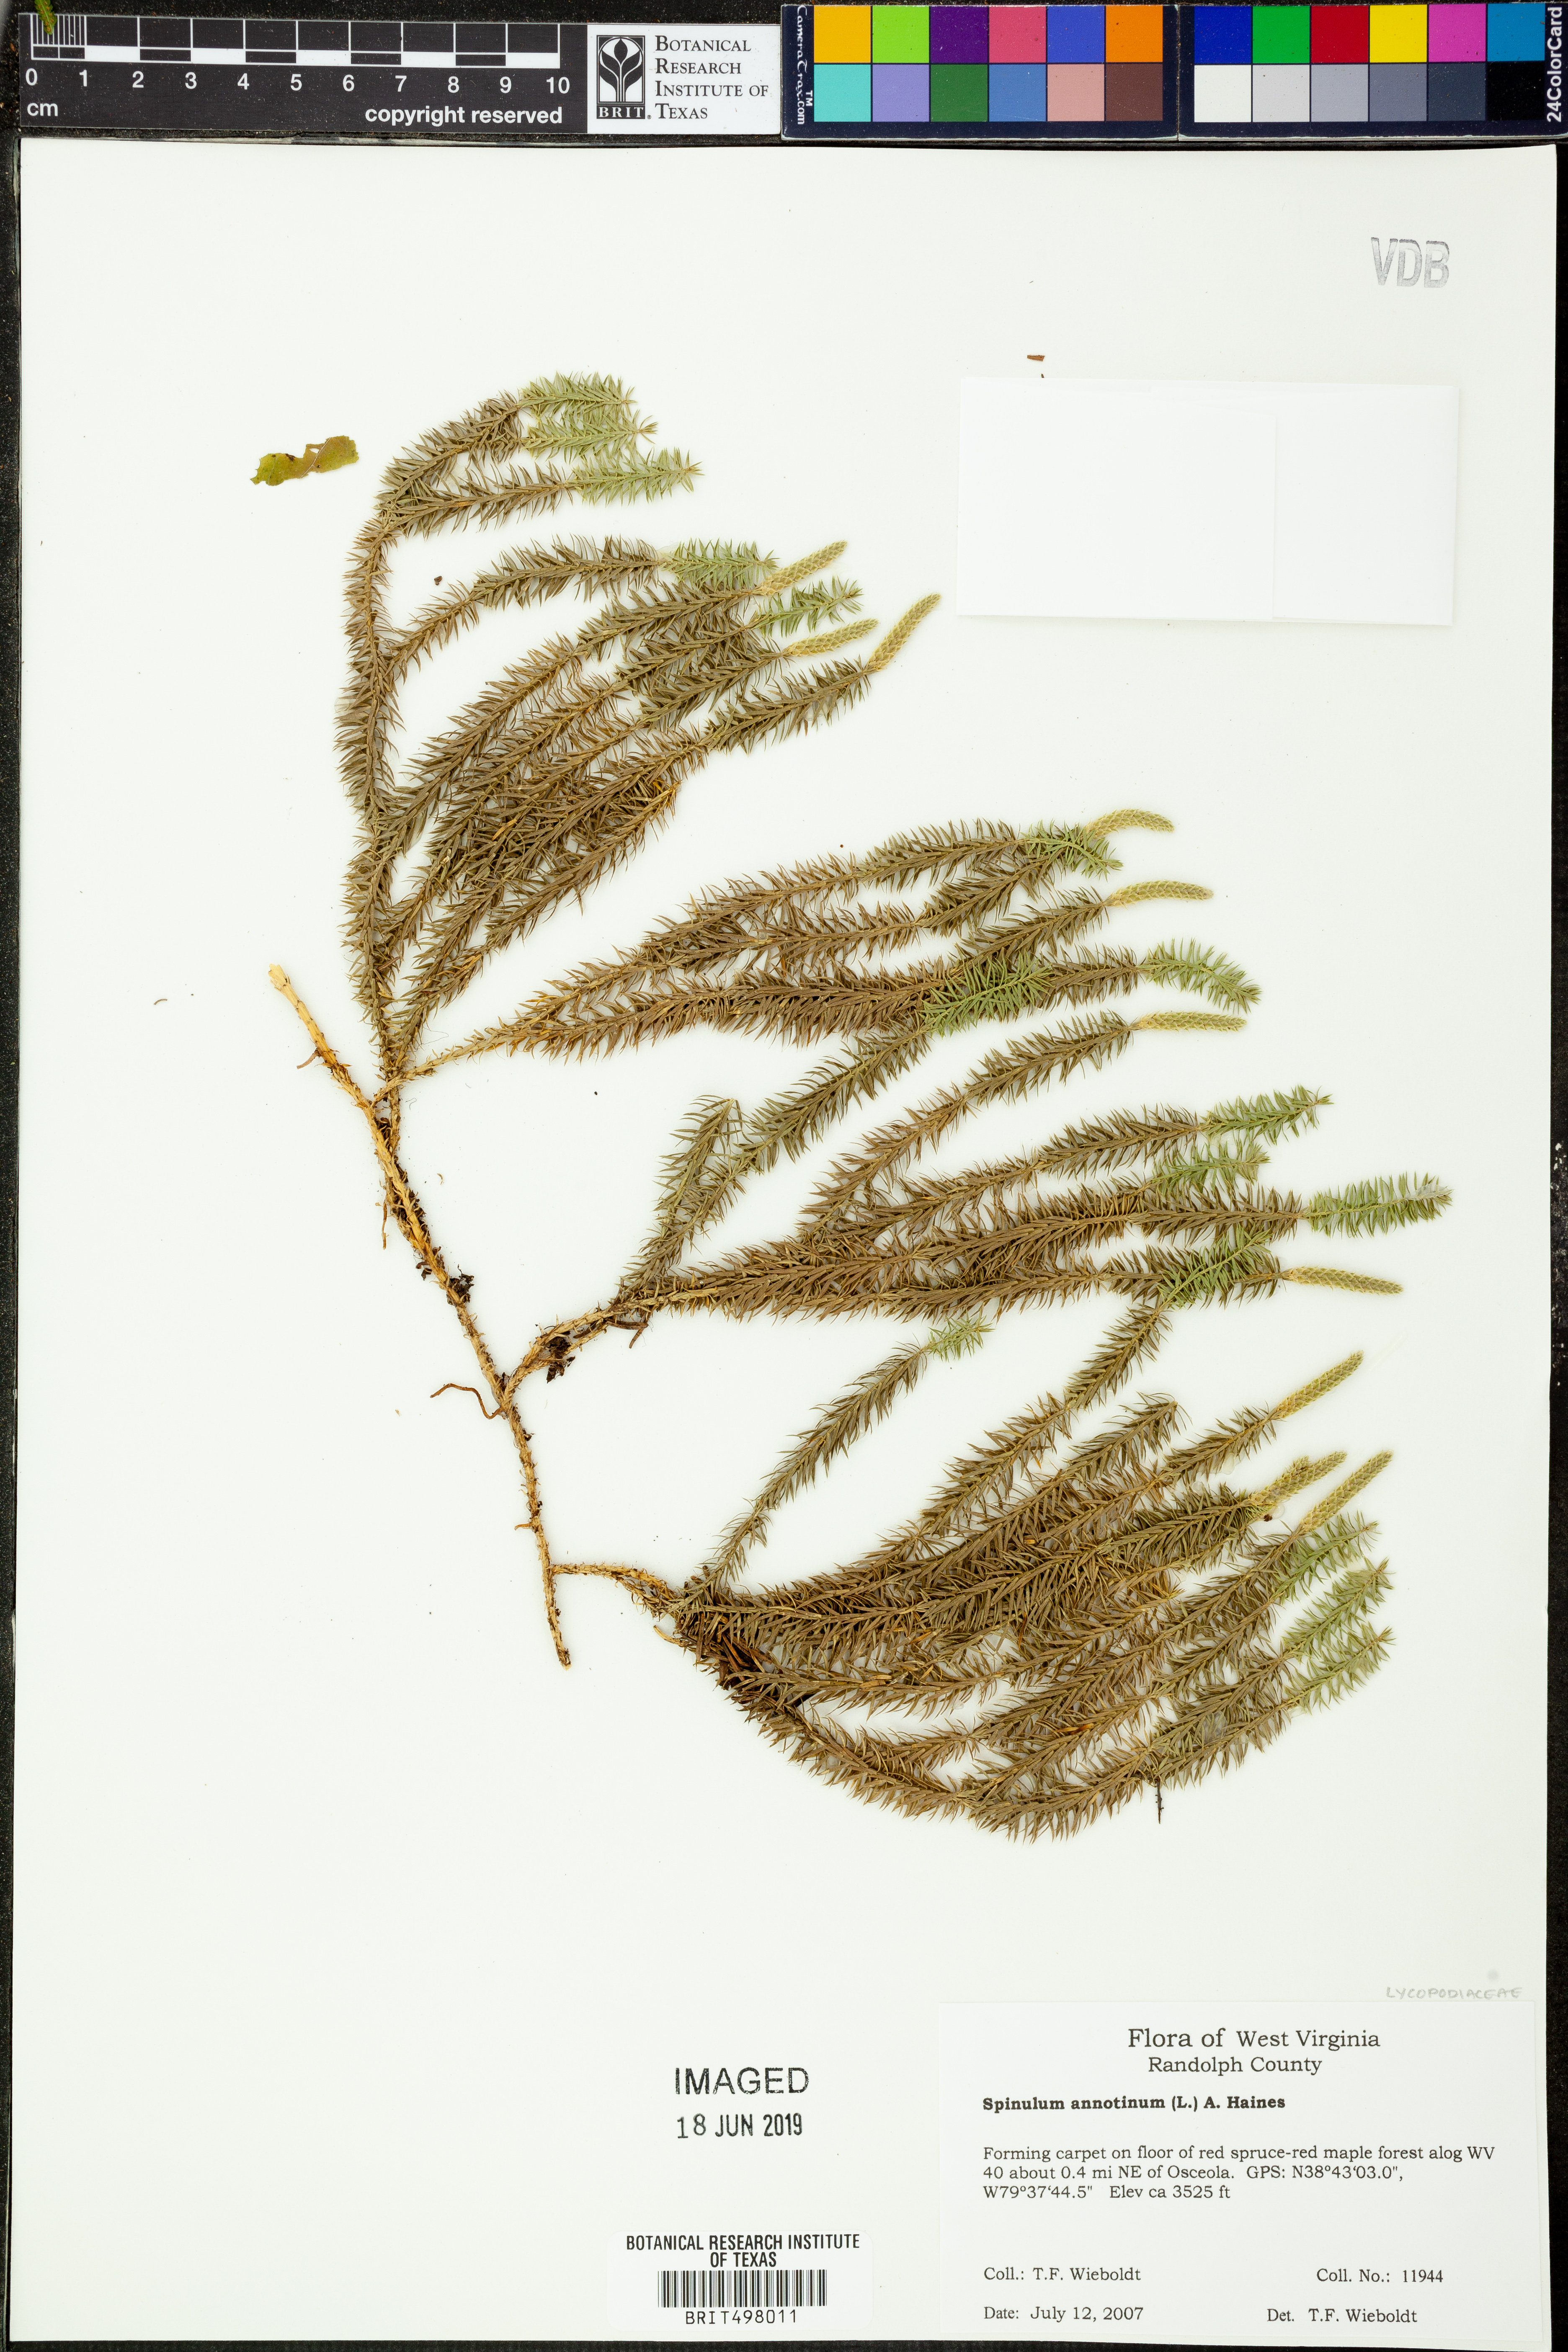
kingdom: Plantae
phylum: Tracheophyta
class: Lycopodiopsida
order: Lycopodiales
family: Lycopodiaceae
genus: Spinulum
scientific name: Spinulum annotinum
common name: Interrupted club-moss
